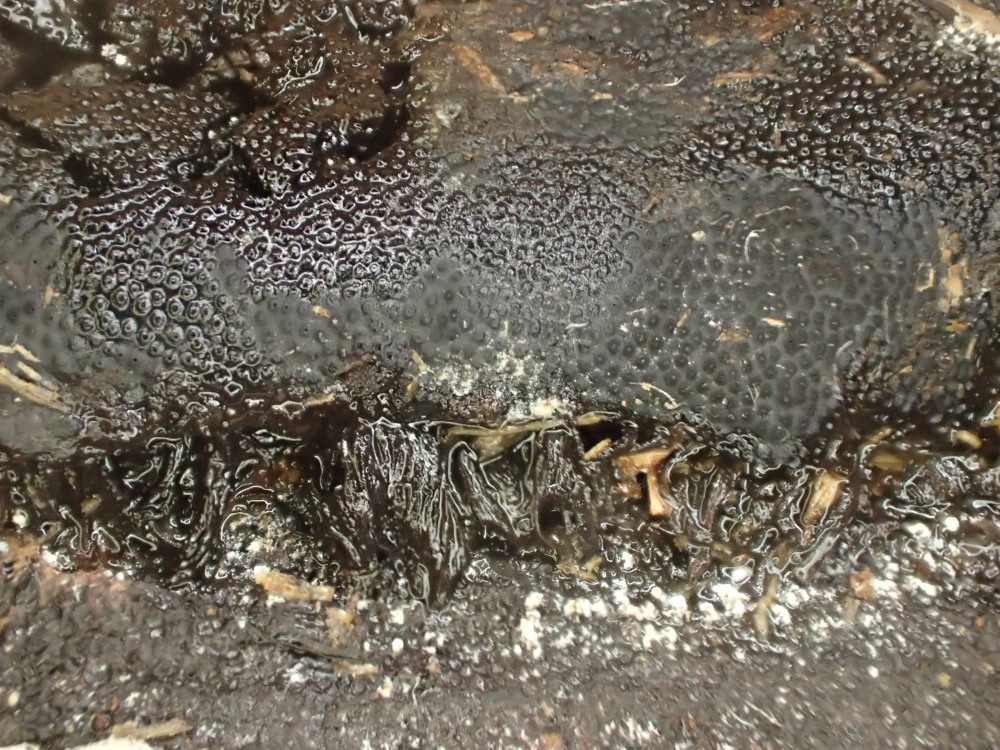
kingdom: Fungi
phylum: Ascomycota
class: Sordariomycetes
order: Boliniales
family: Boliniaceae
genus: Camarops
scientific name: Camarops polysperma
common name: elle-kulsnegl
